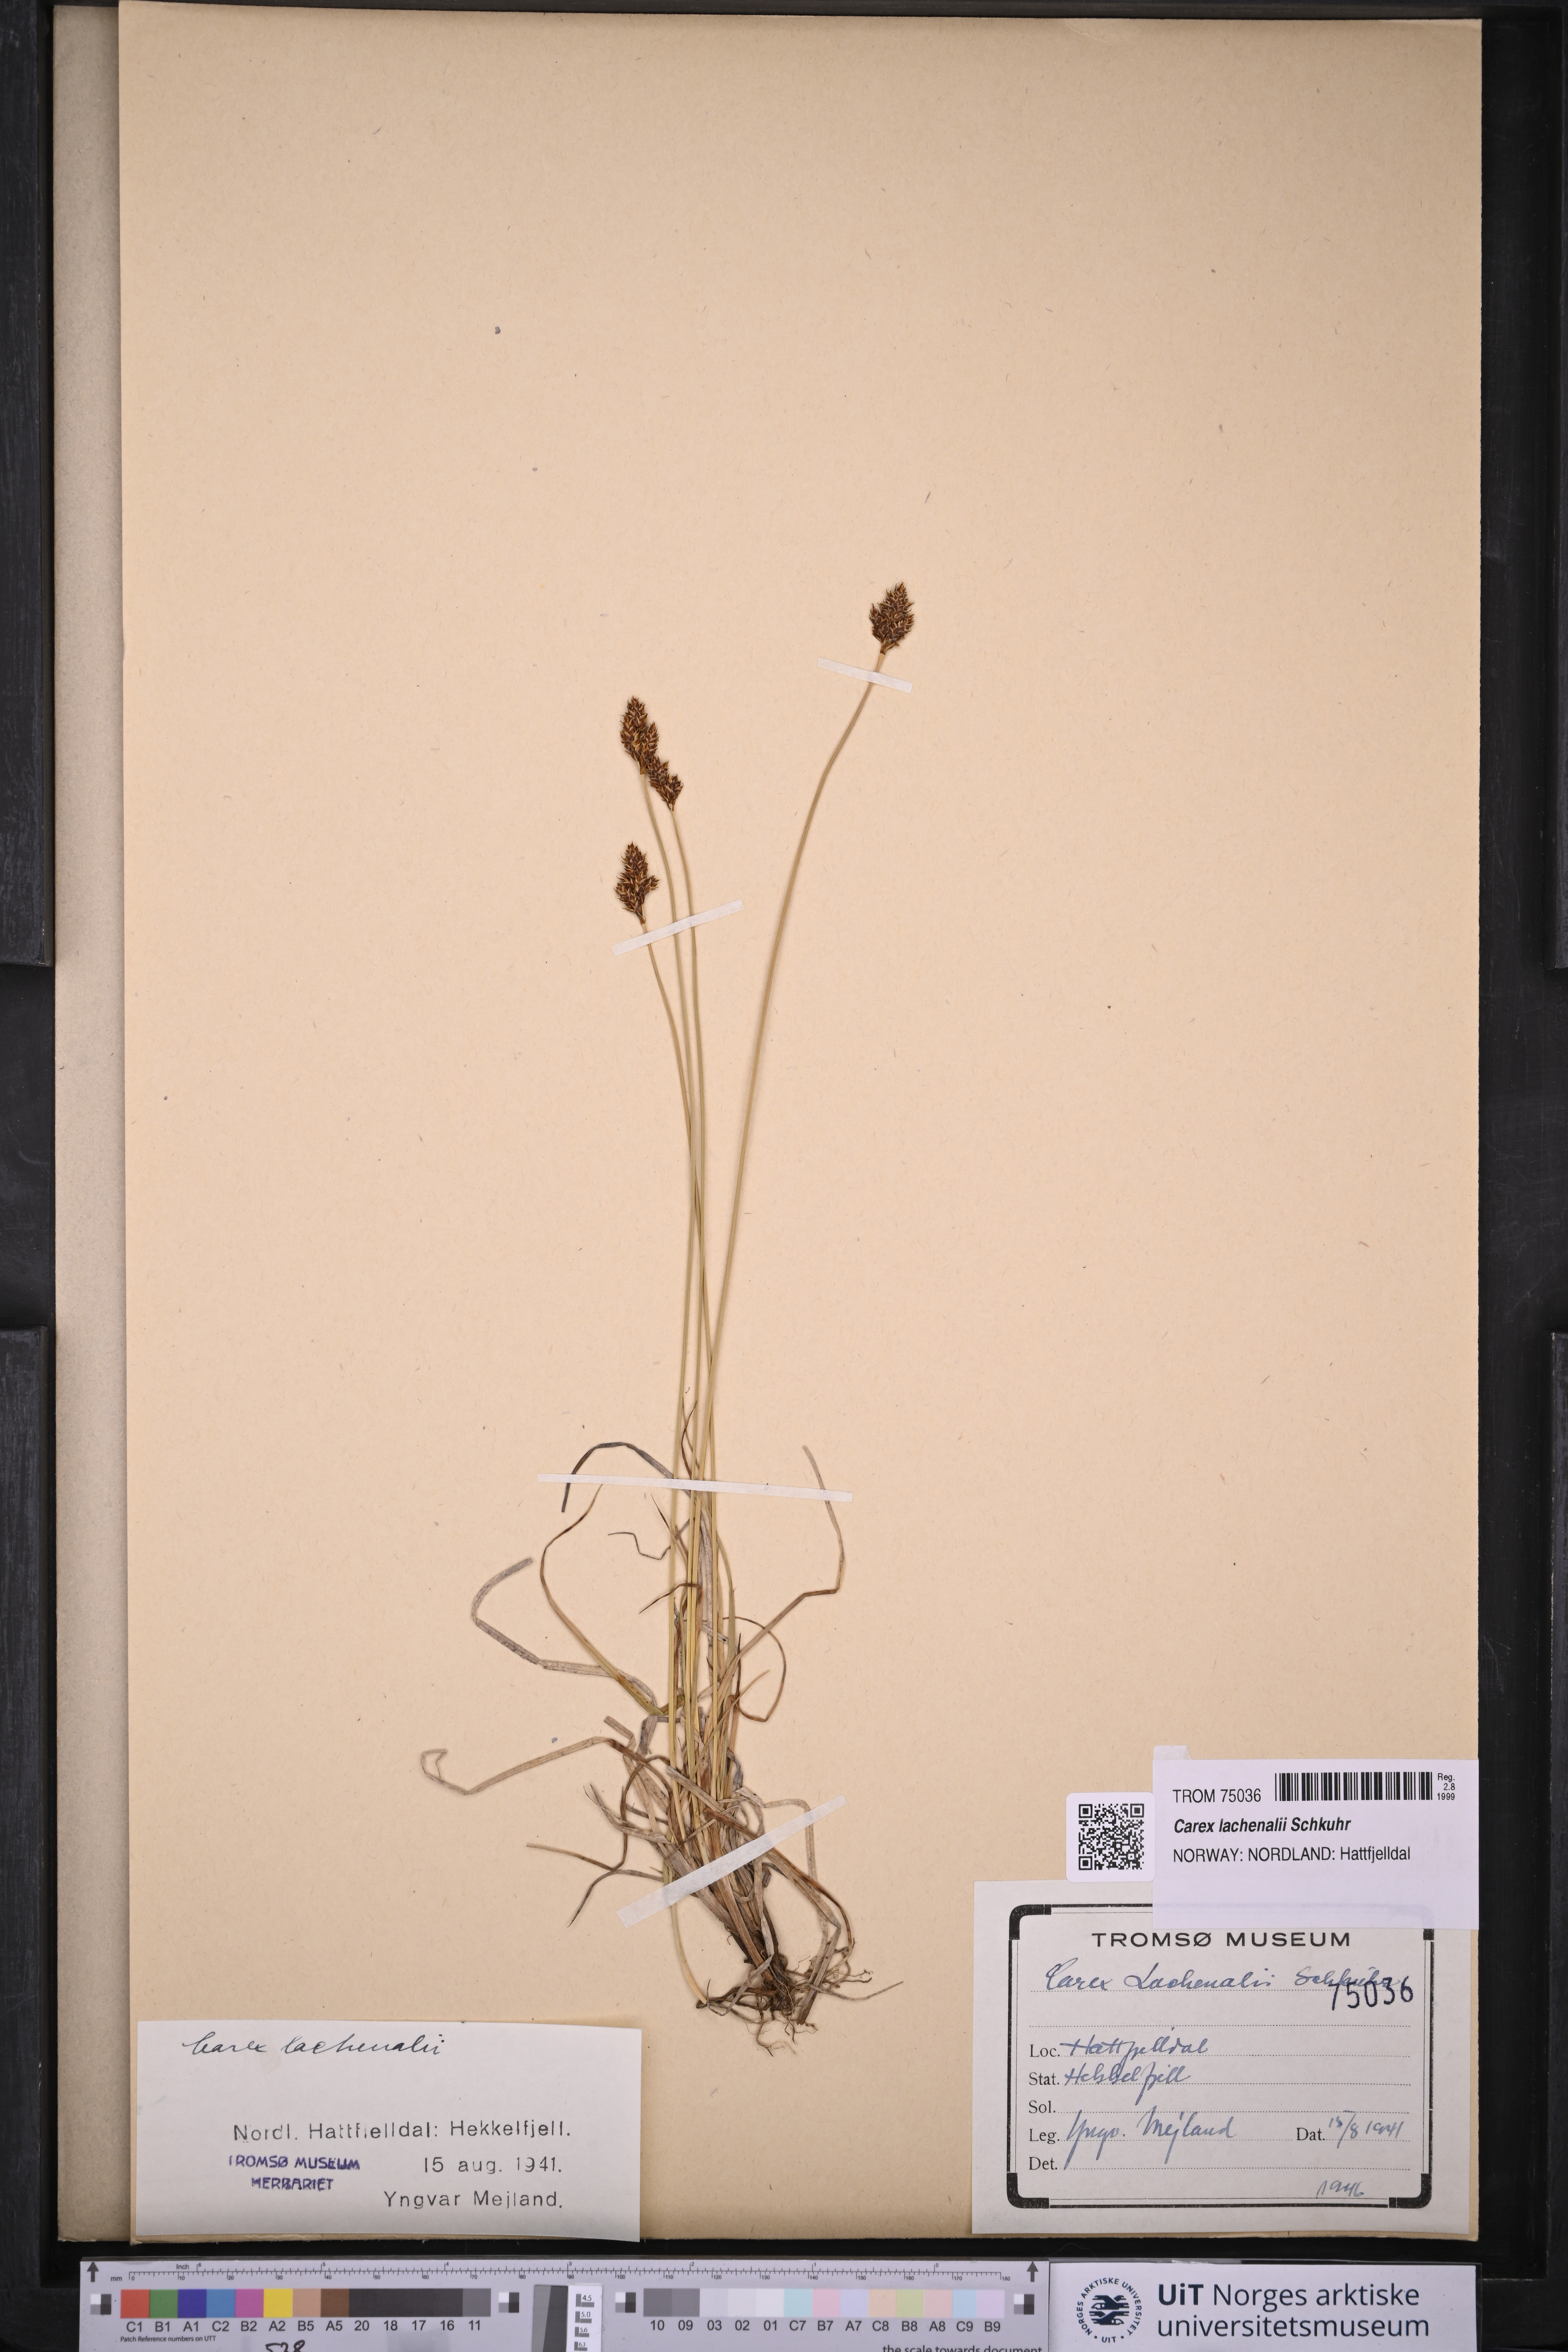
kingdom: Plantae
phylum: Tracheophyta
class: Liliopsida
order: Poales
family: Cyperaceae
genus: Carex
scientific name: Carex lachenalii
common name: Hare's-foot sedge
